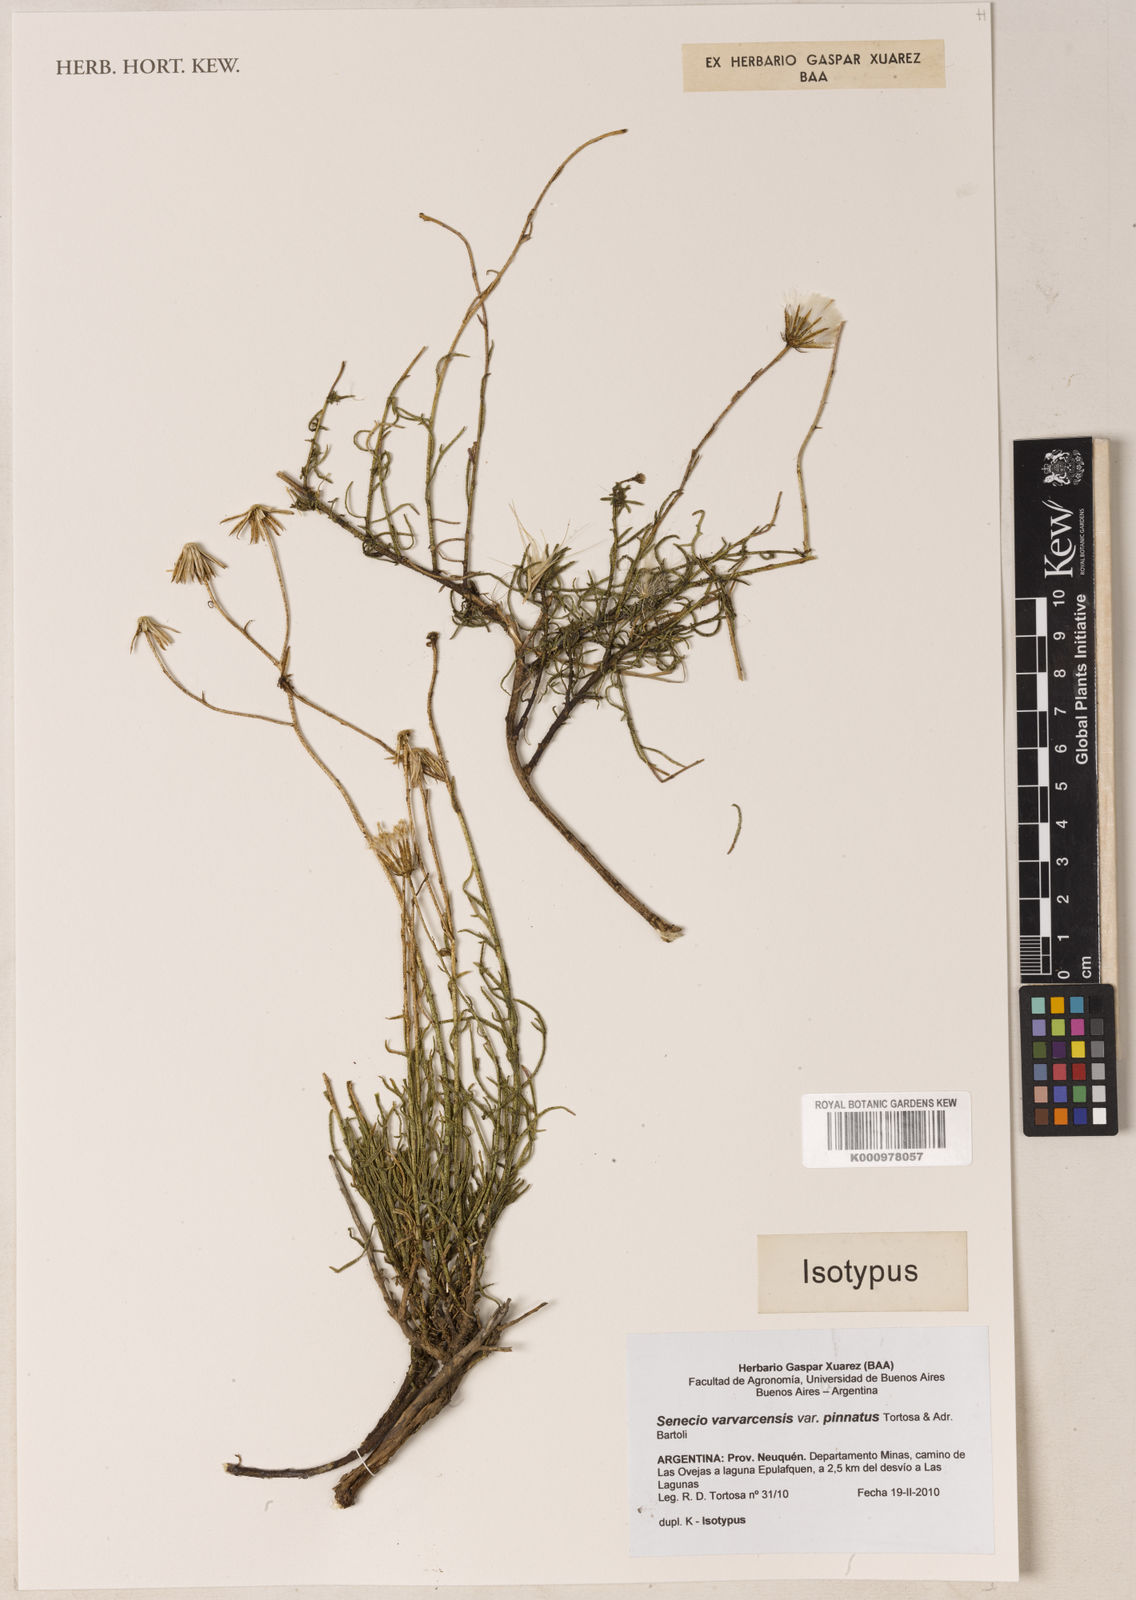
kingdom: Plantae
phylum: Tracheophyta
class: Magnoliopsida
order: Asterales
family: Asteraceae
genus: Senecio
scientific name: Senecio varvarcensis
